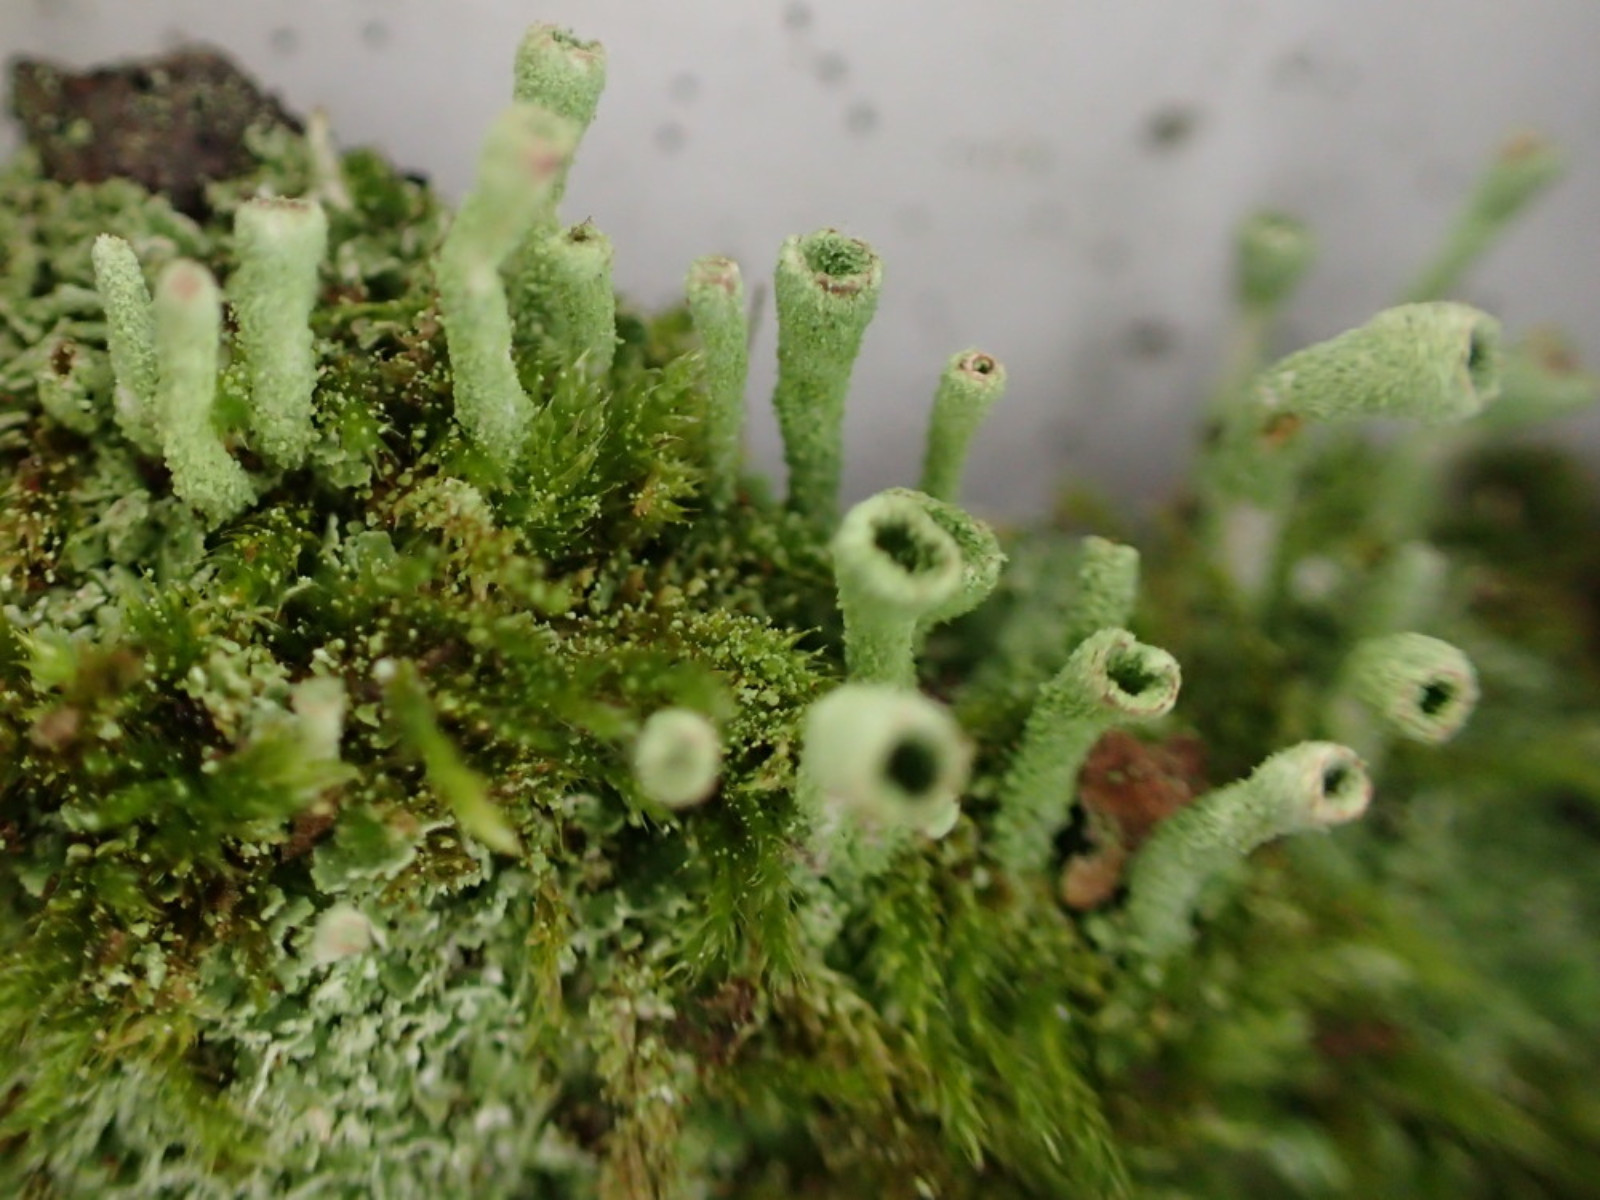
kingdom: Fungi
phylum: Ascomycota
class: Lecanoromycetes
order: Lecanorales
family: Cladoniaceae
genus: Cladonia
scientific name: Cladonia
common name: brungrøn bægerlav
